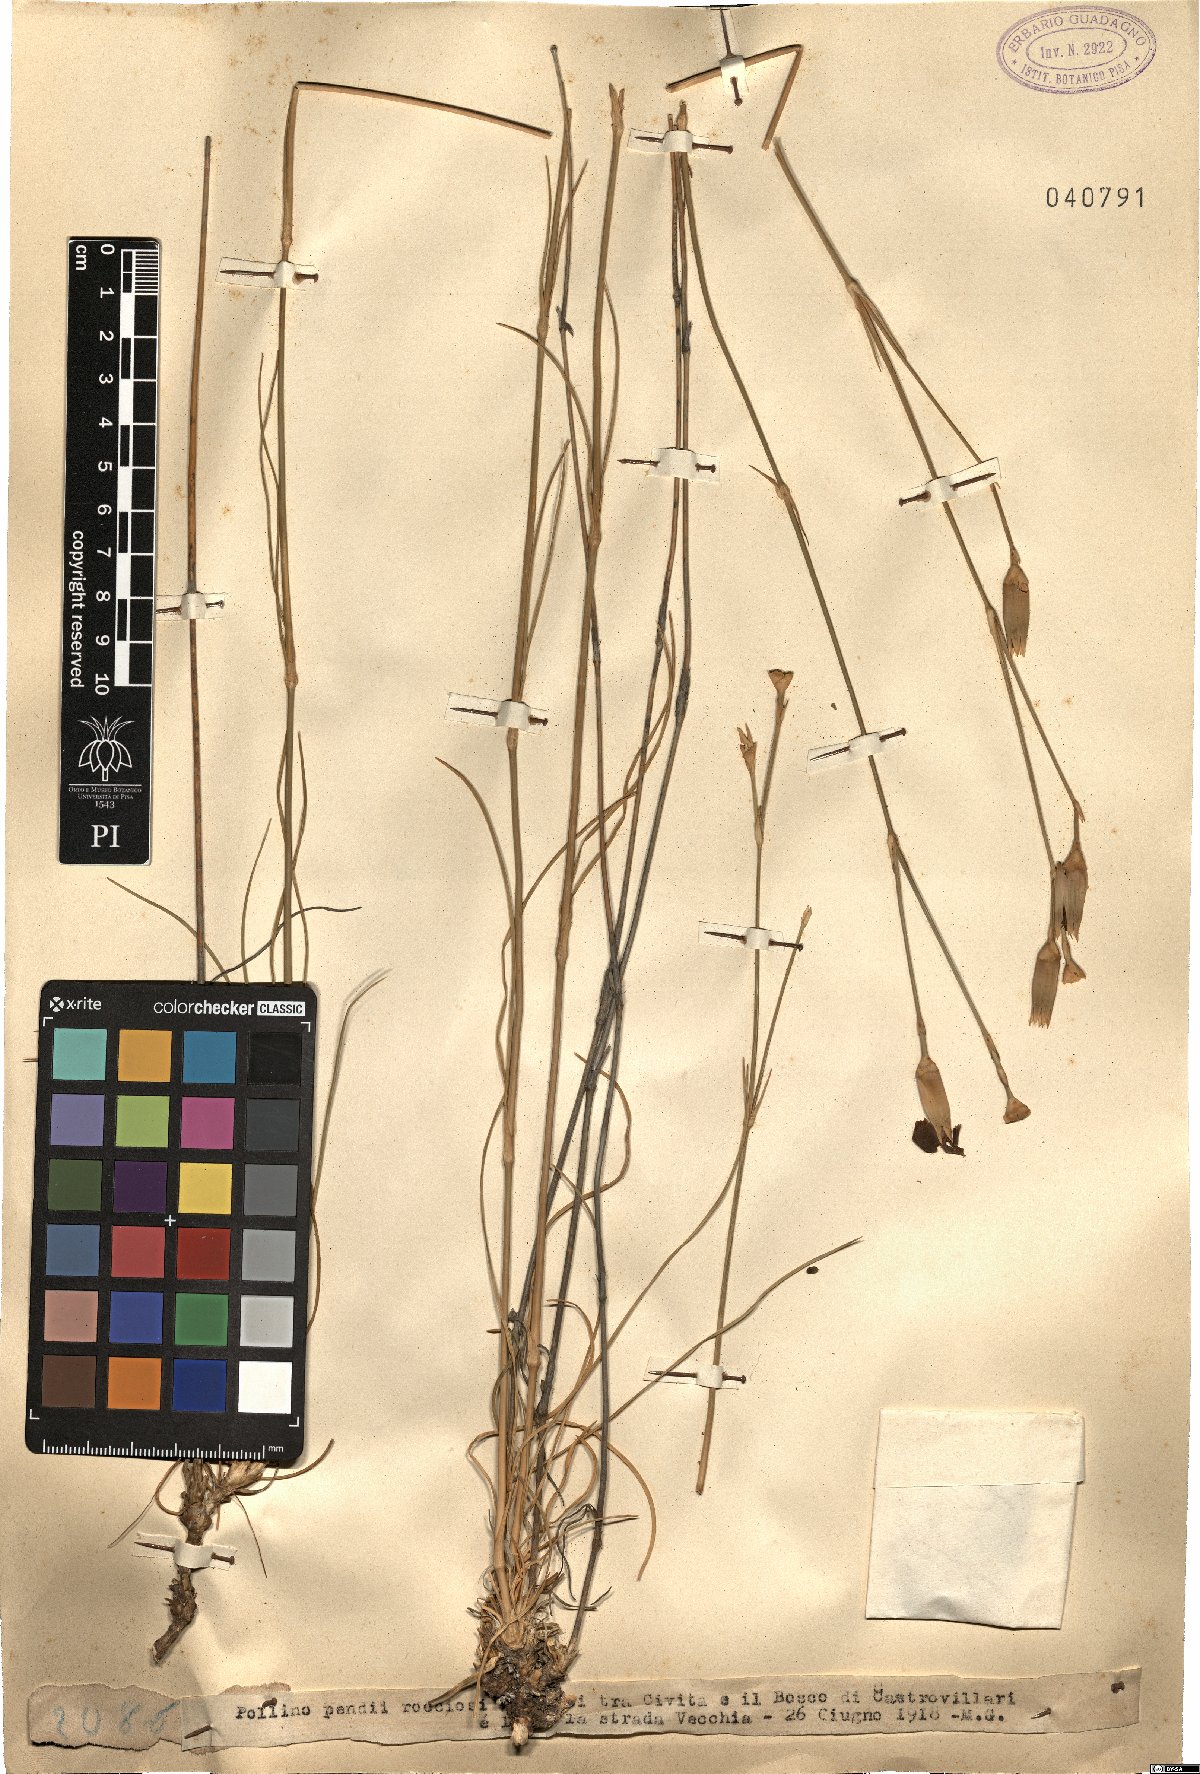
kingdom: Plantae
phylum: Tracheophyta
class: Magnoliopsida
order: Caryophyllales
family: Caryophyllaceae
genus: Dianthus
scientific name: Dianthus
